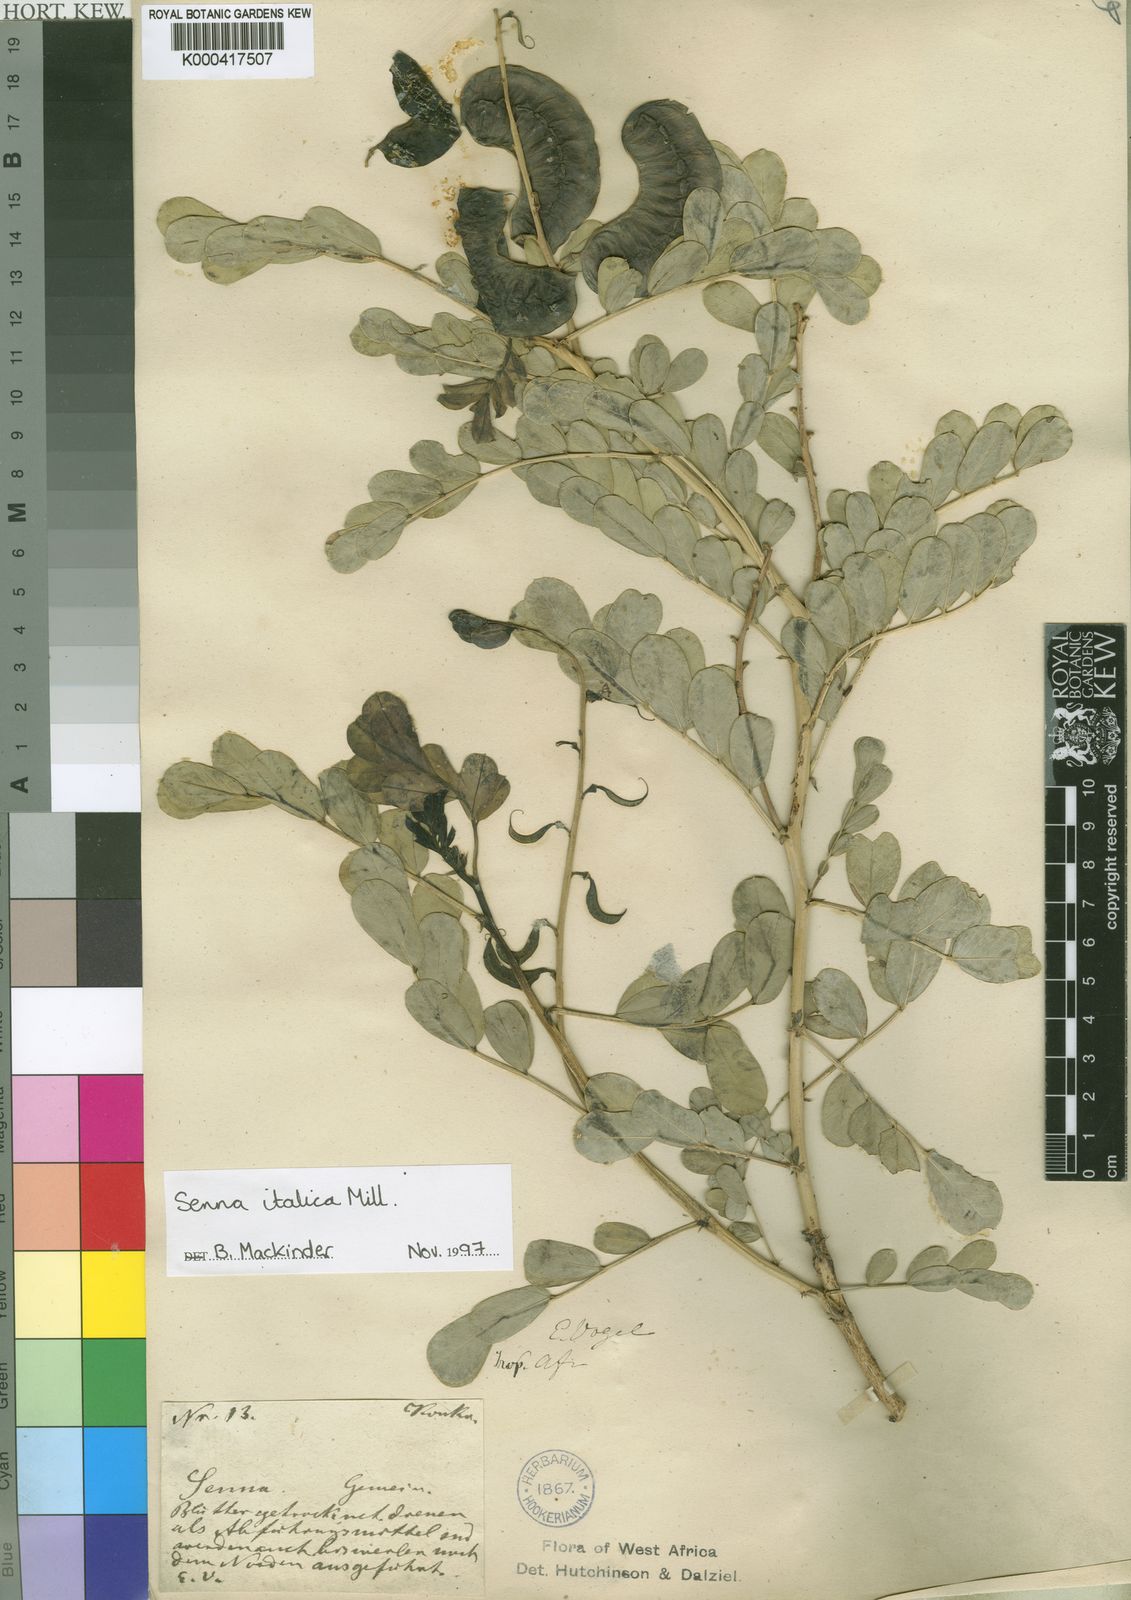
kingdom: Plantae
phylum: Tracheophyta
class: Magnoliopsida
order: Fabales
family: Fabaceae
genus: Senna
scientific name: Senna italica
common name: Port royal senna
